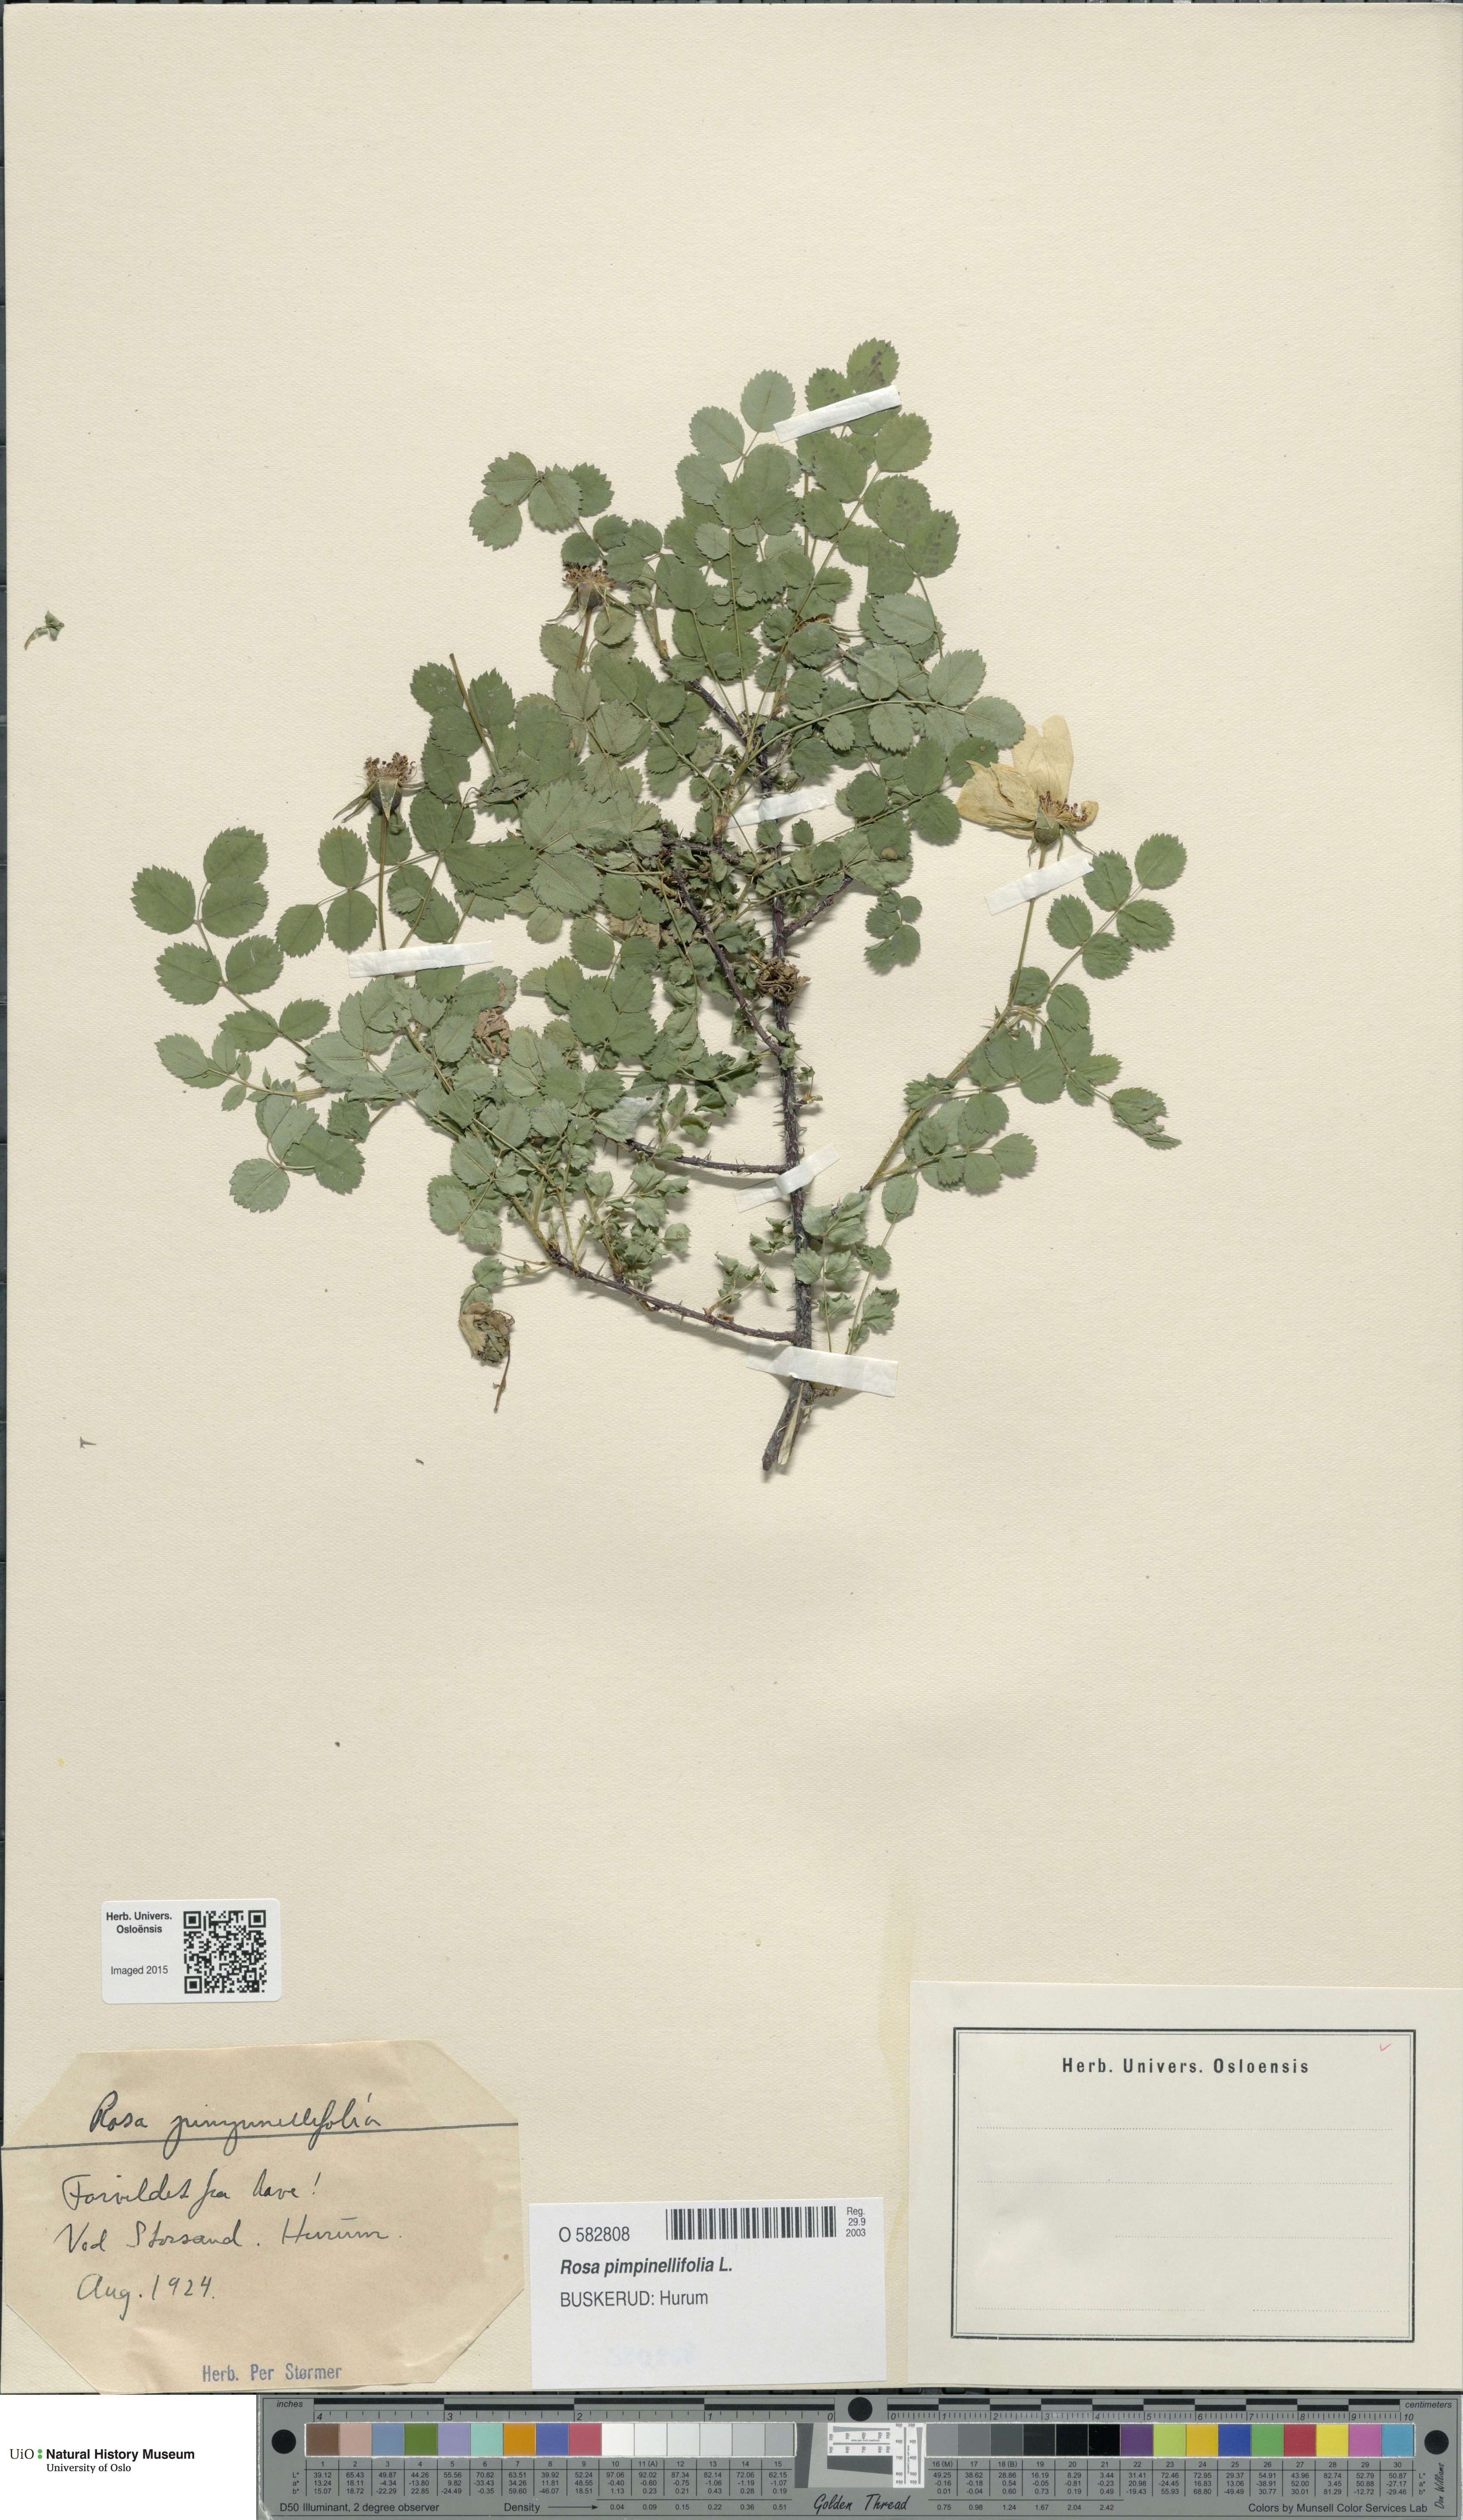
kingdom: Plantae
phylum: Tracheophyta
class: Magnoliopsida
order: Rosales
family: Rosaceae
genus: Rosa
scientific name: Rosa spinosissima
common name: Burnet rose
